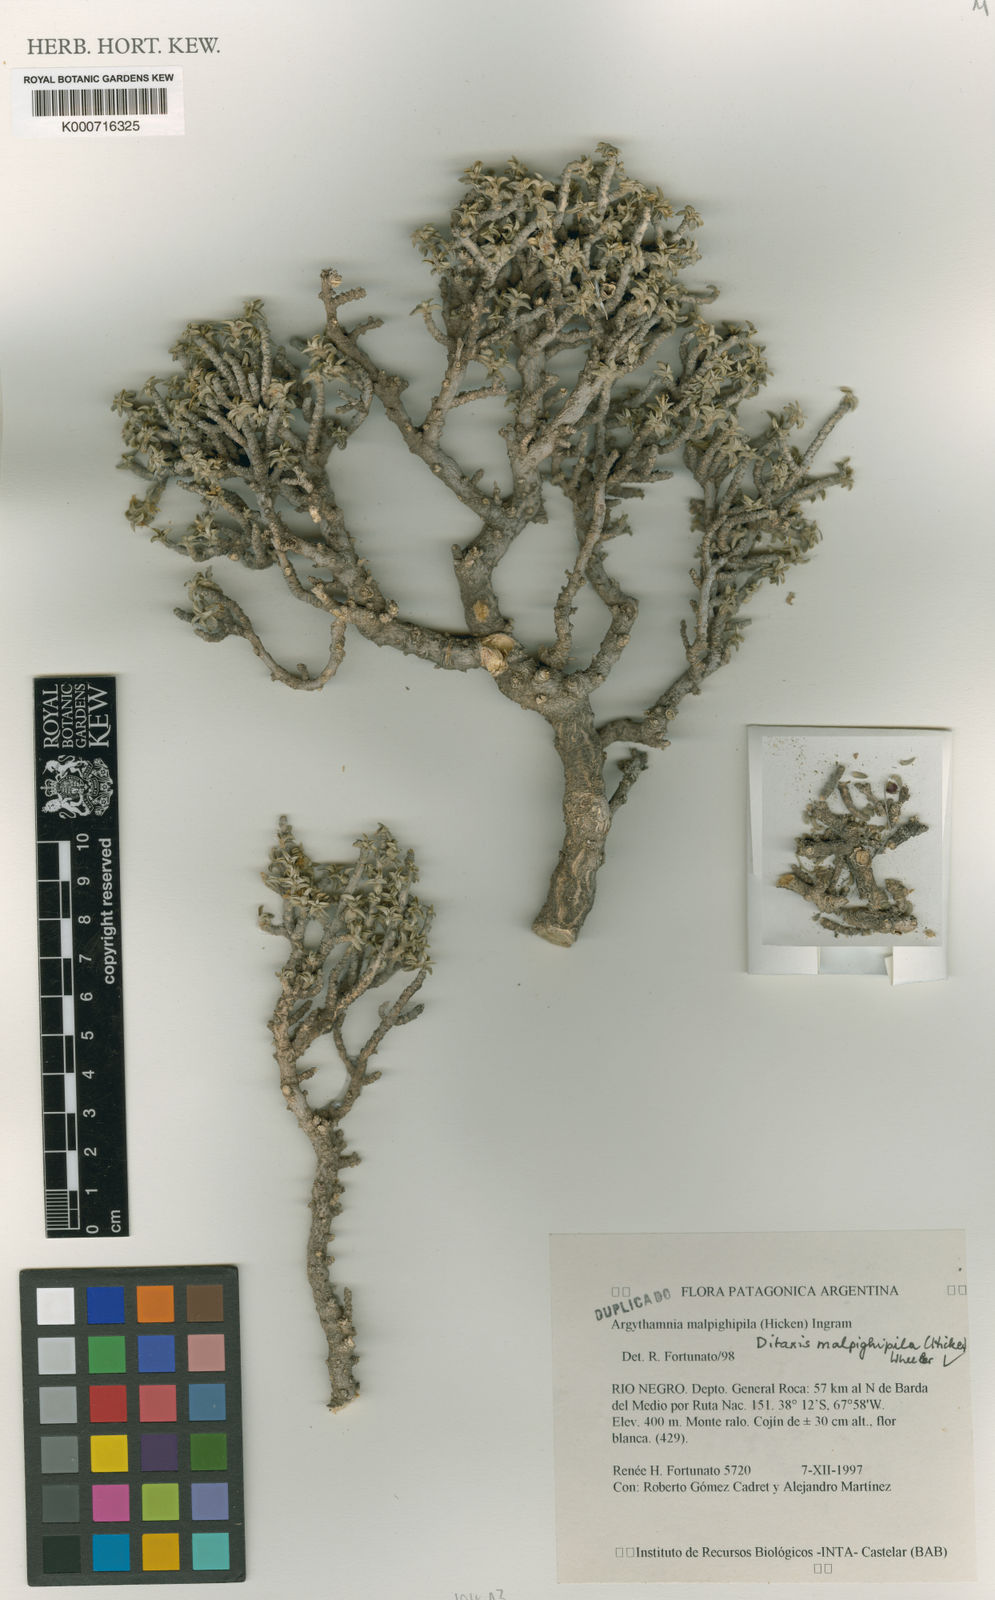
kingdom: Plantae
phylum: Tracheophyta
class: Magnoliopsida
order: Malpighiales
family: Euphorbiaceae
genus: Ditaxis
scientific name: Ditaxis malpighipila
